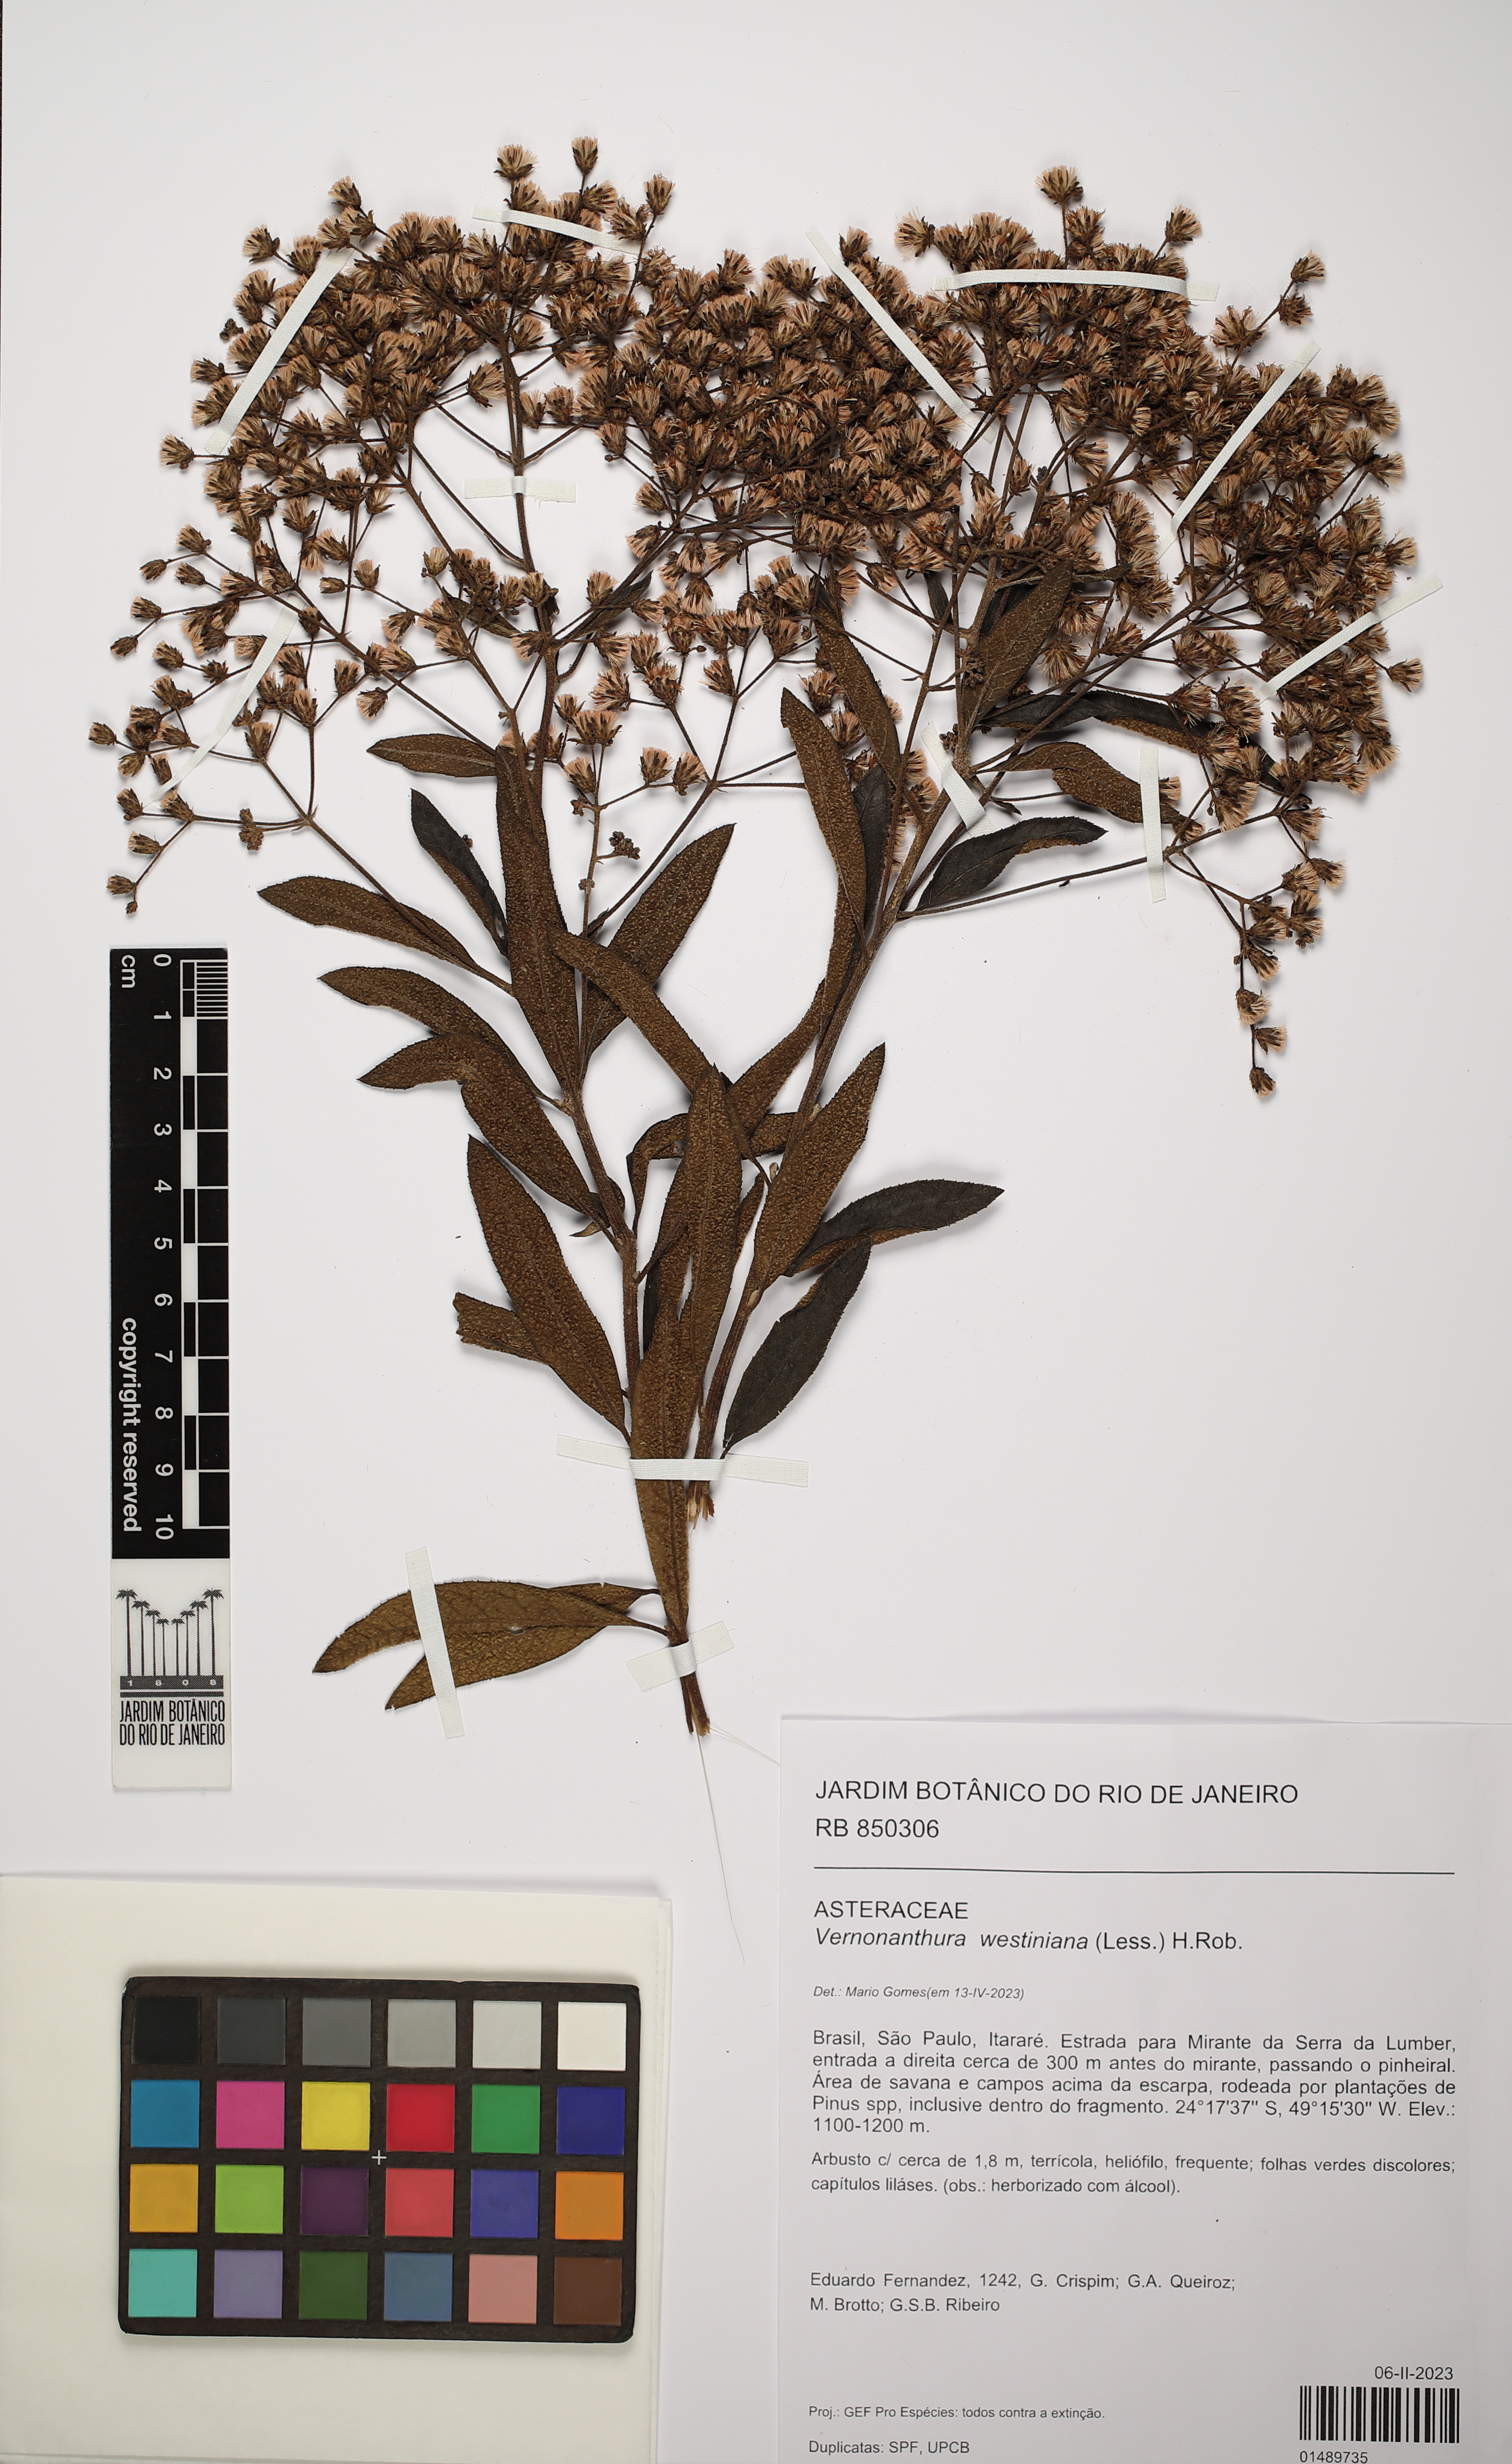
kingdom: Plantae
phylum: Tracheophyta
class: Magnoliopsida
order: Asterales
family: Asteraceae
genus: Vernonanthura
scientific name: Vernonanthura westiniana
